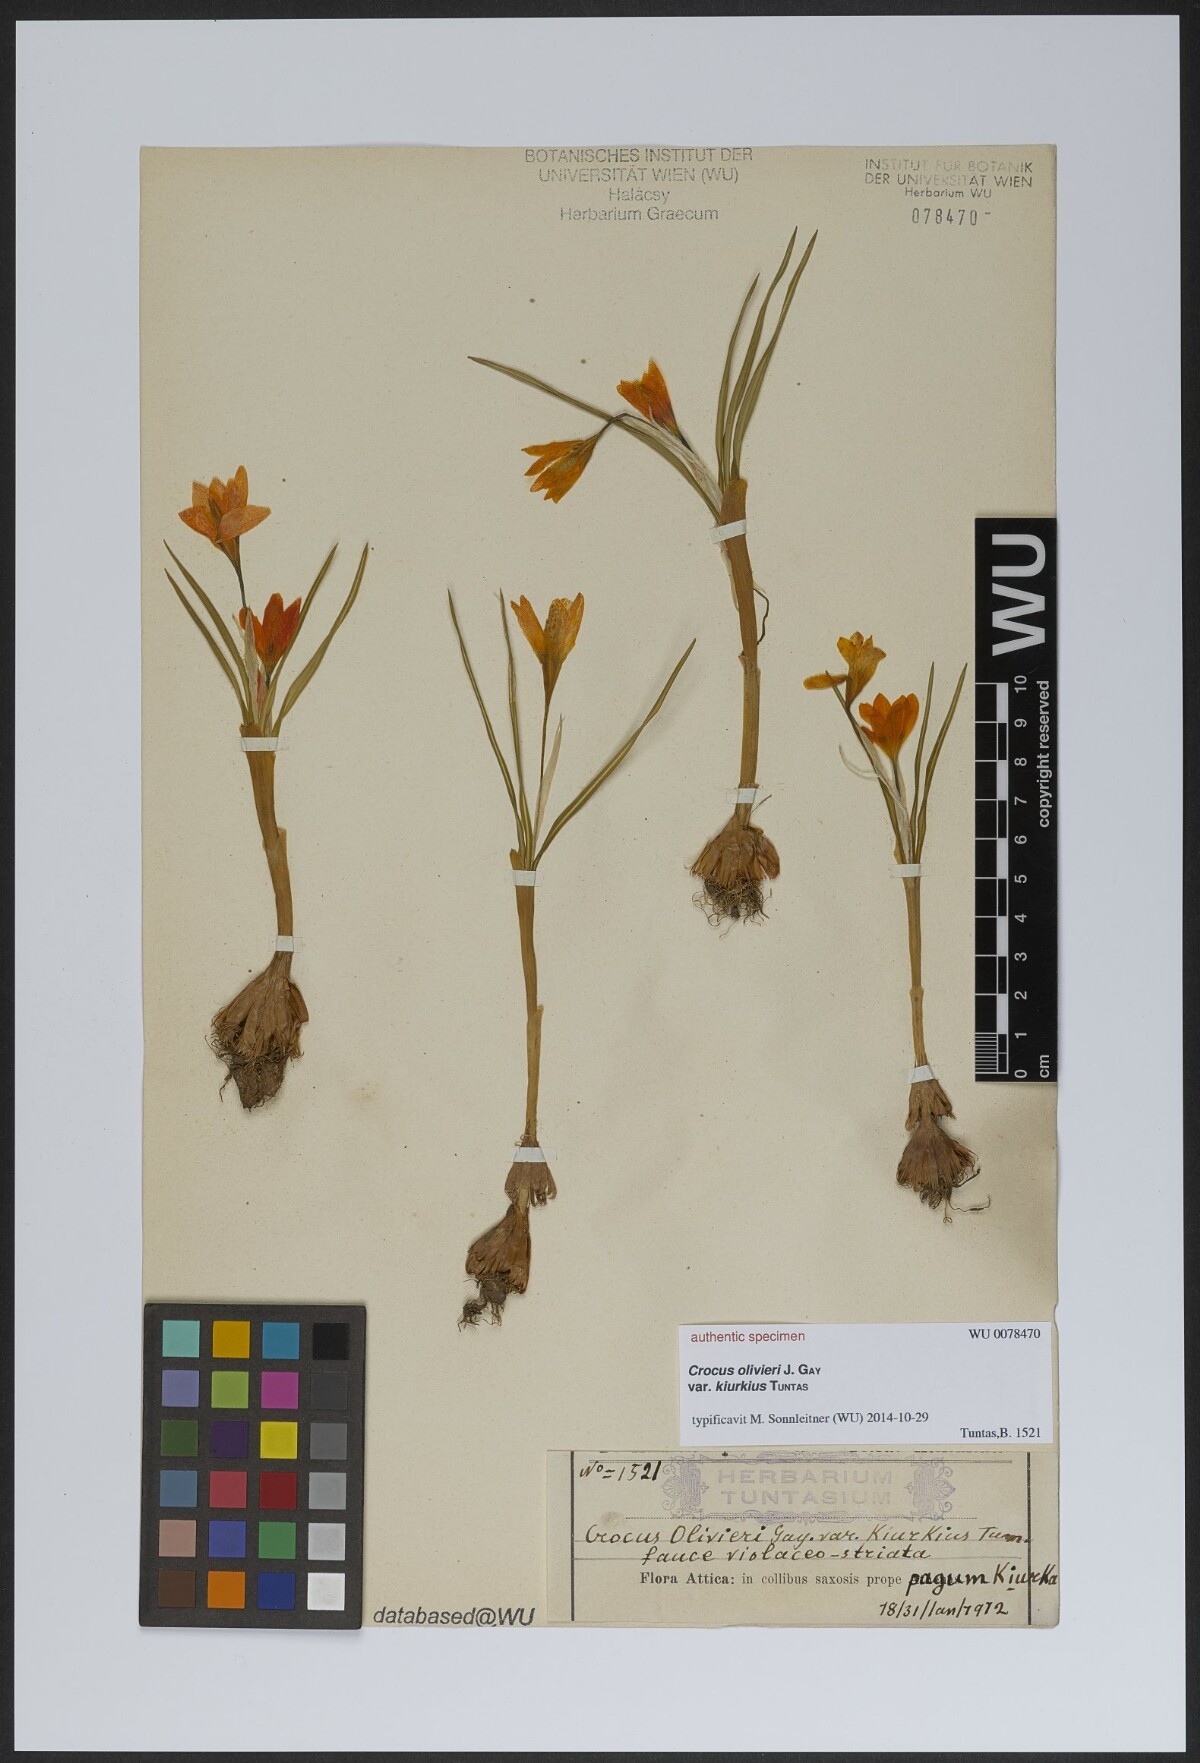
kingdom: Plantae
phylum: Tracheophyta
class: Liliopsida
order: Asparagales
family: Iridaceae
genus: Crocus
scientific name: Crocus olivieri
